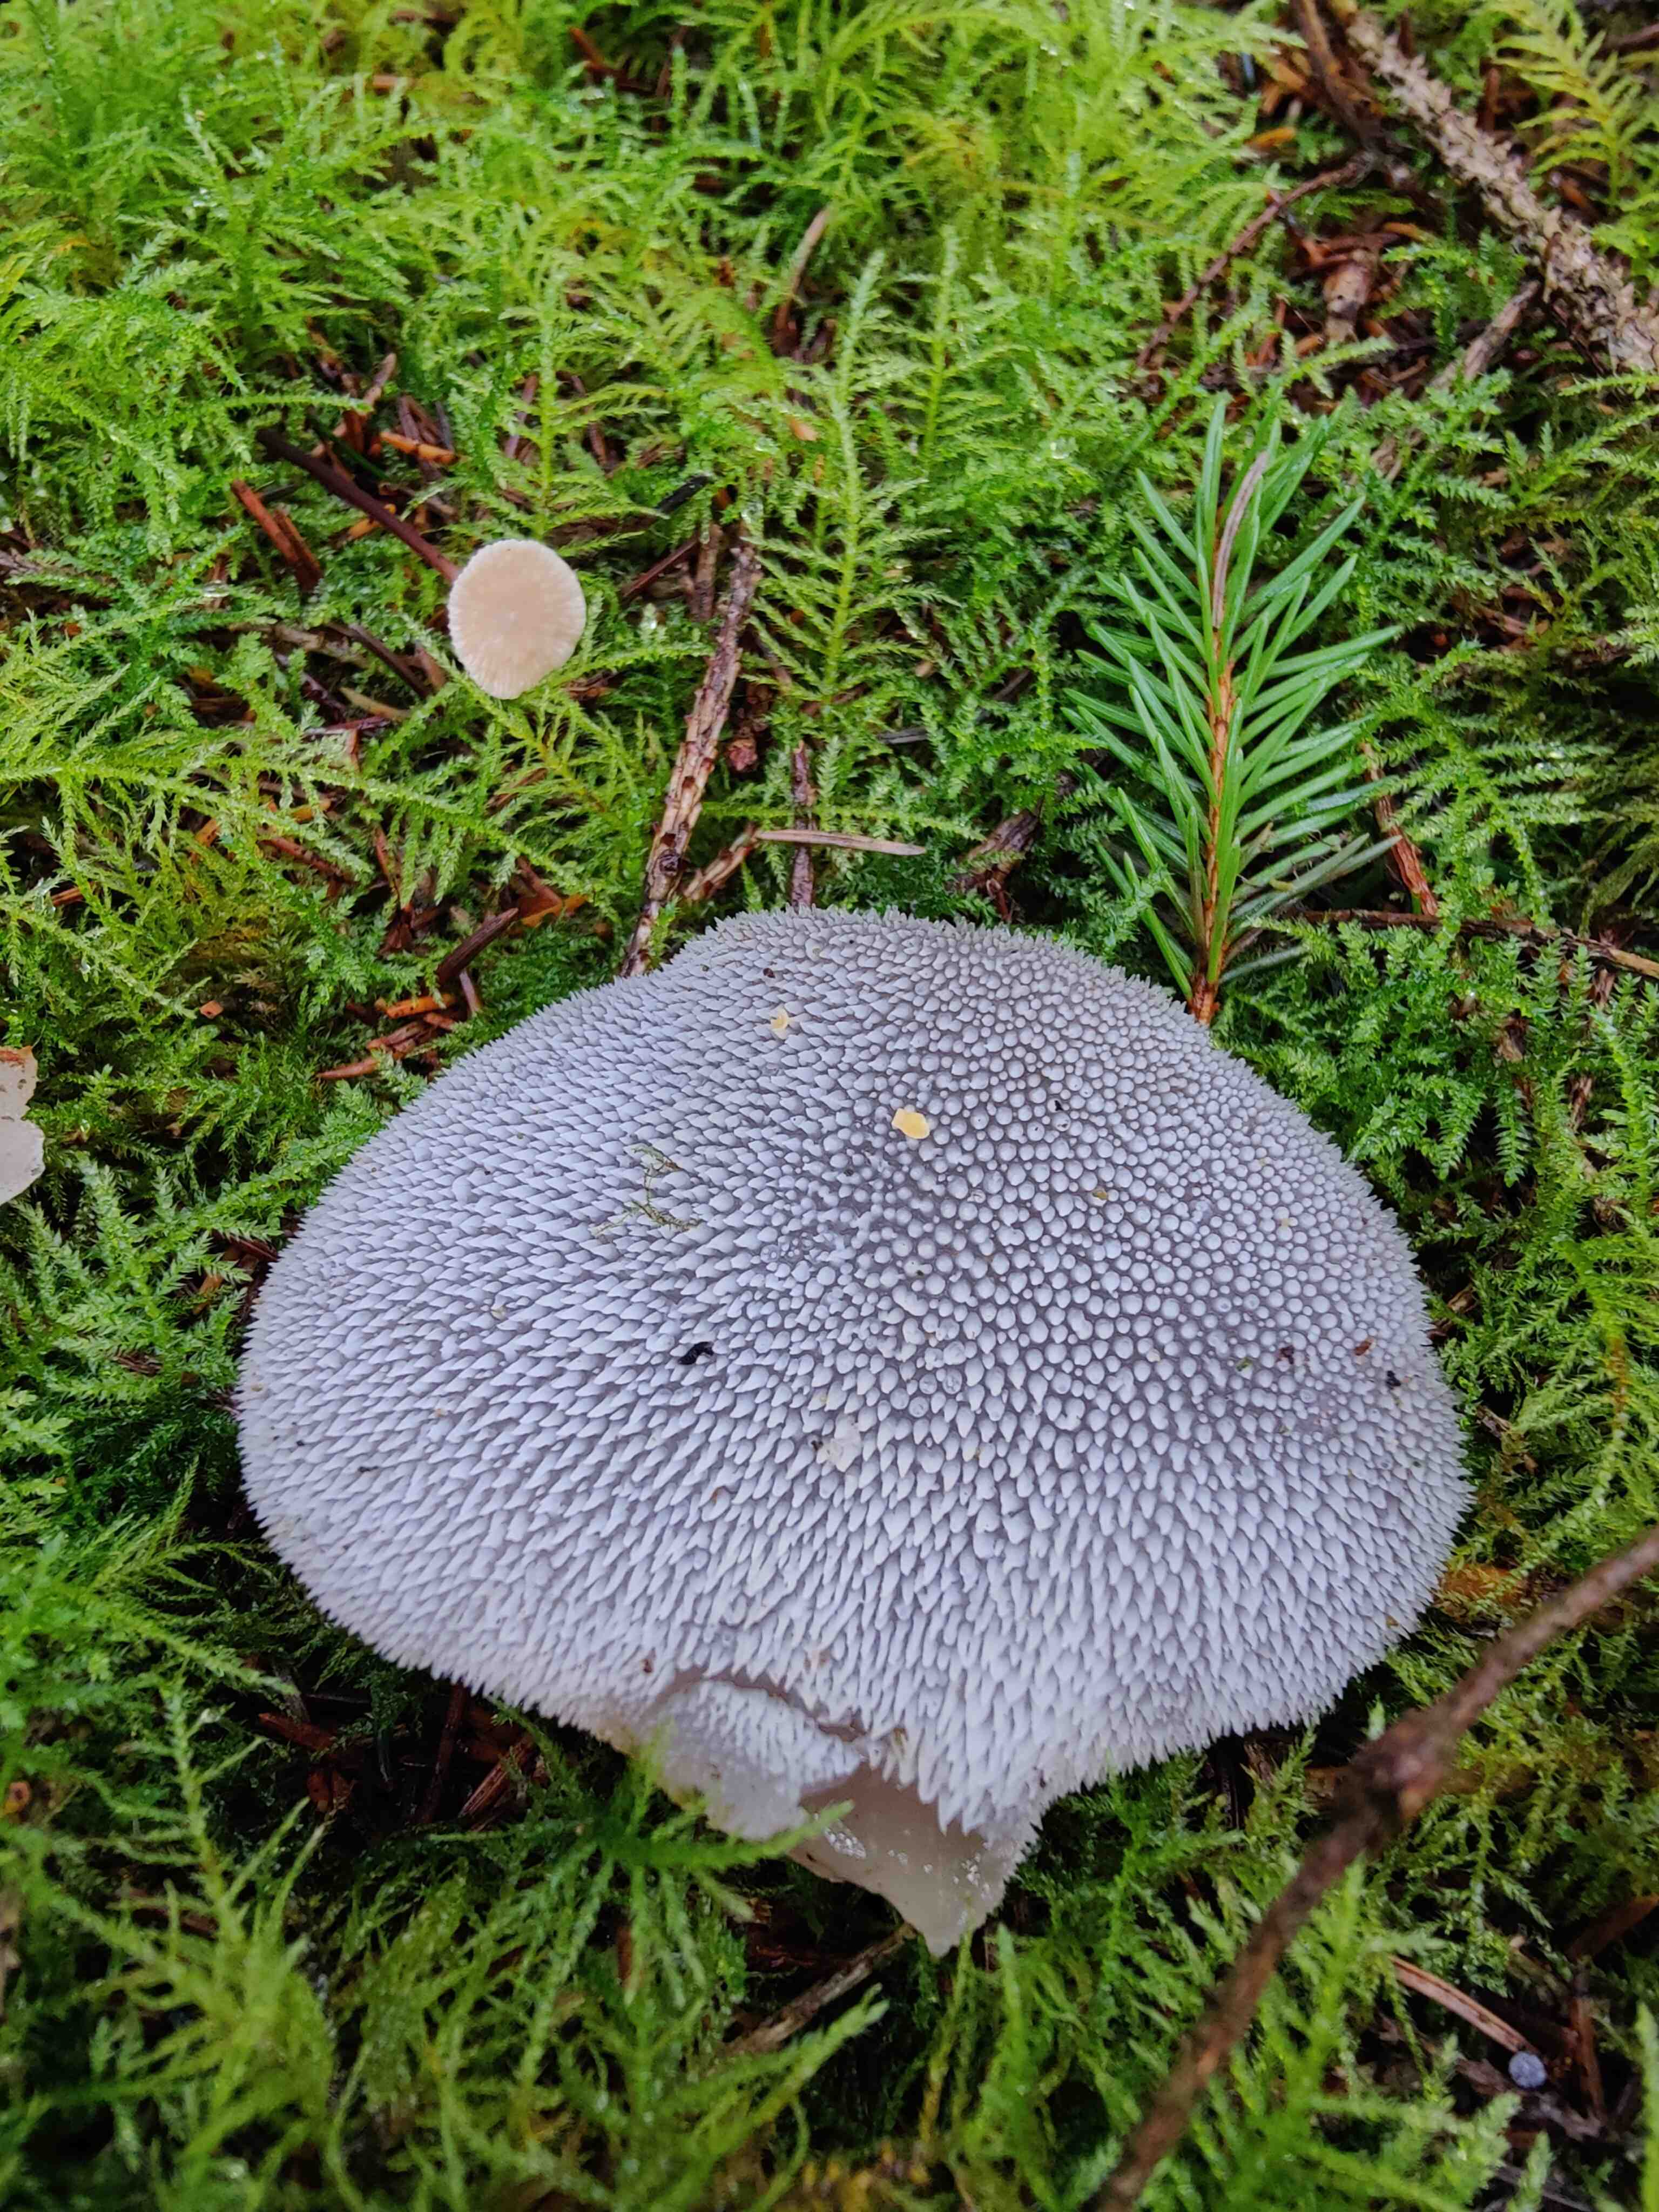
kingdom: Fungi
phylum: Basidiomycota
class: Agaricomycetes
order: Auriculariales
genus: Pseudohydnum
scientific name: Pseudohydnum gelatinosum
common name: bævretand
